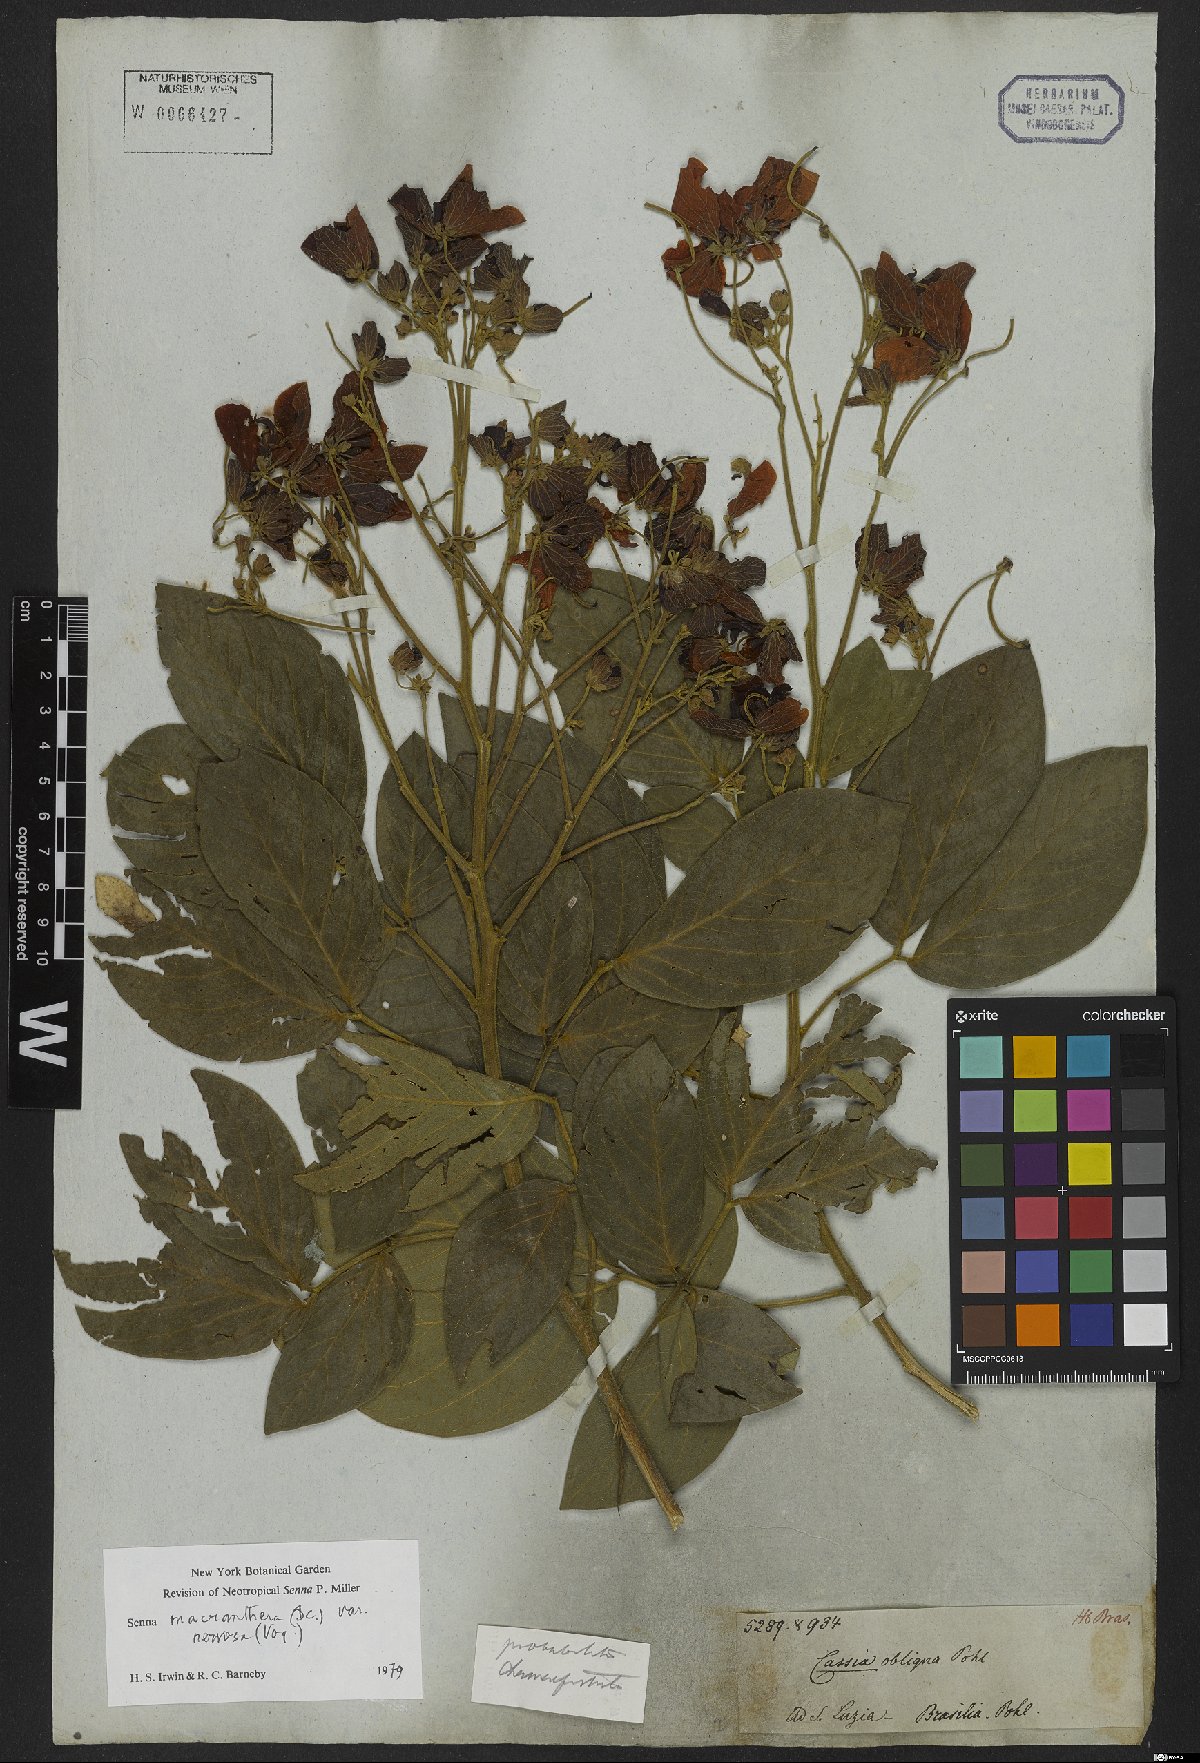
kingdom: Plantae
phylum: Tracheophyta
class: Magnoliopsida
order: Fabales
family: Fabaceae
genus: Senna
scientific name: Senna macranthera
